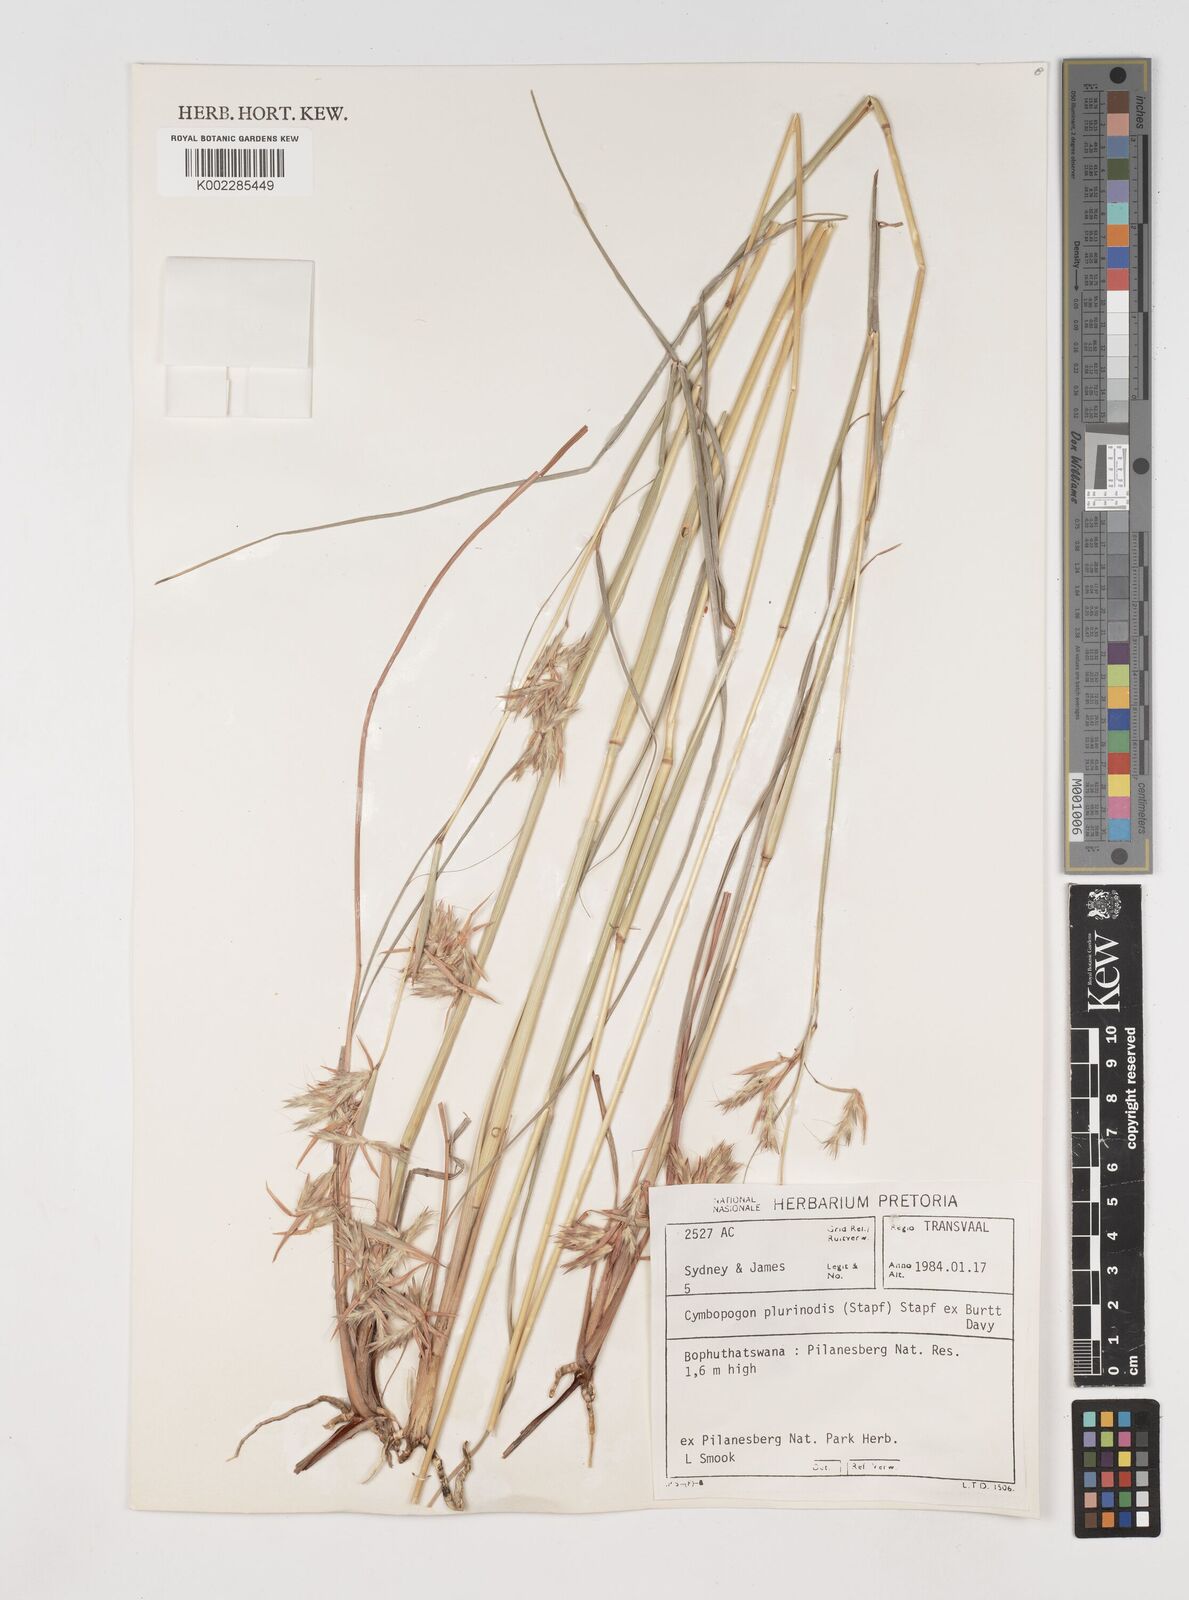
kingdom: Plantae
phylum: Tracheophyta
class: Liliopsida
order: Poales
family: Poaceae
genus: Cymbopogon
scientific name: Cymbopogon pospischilii
